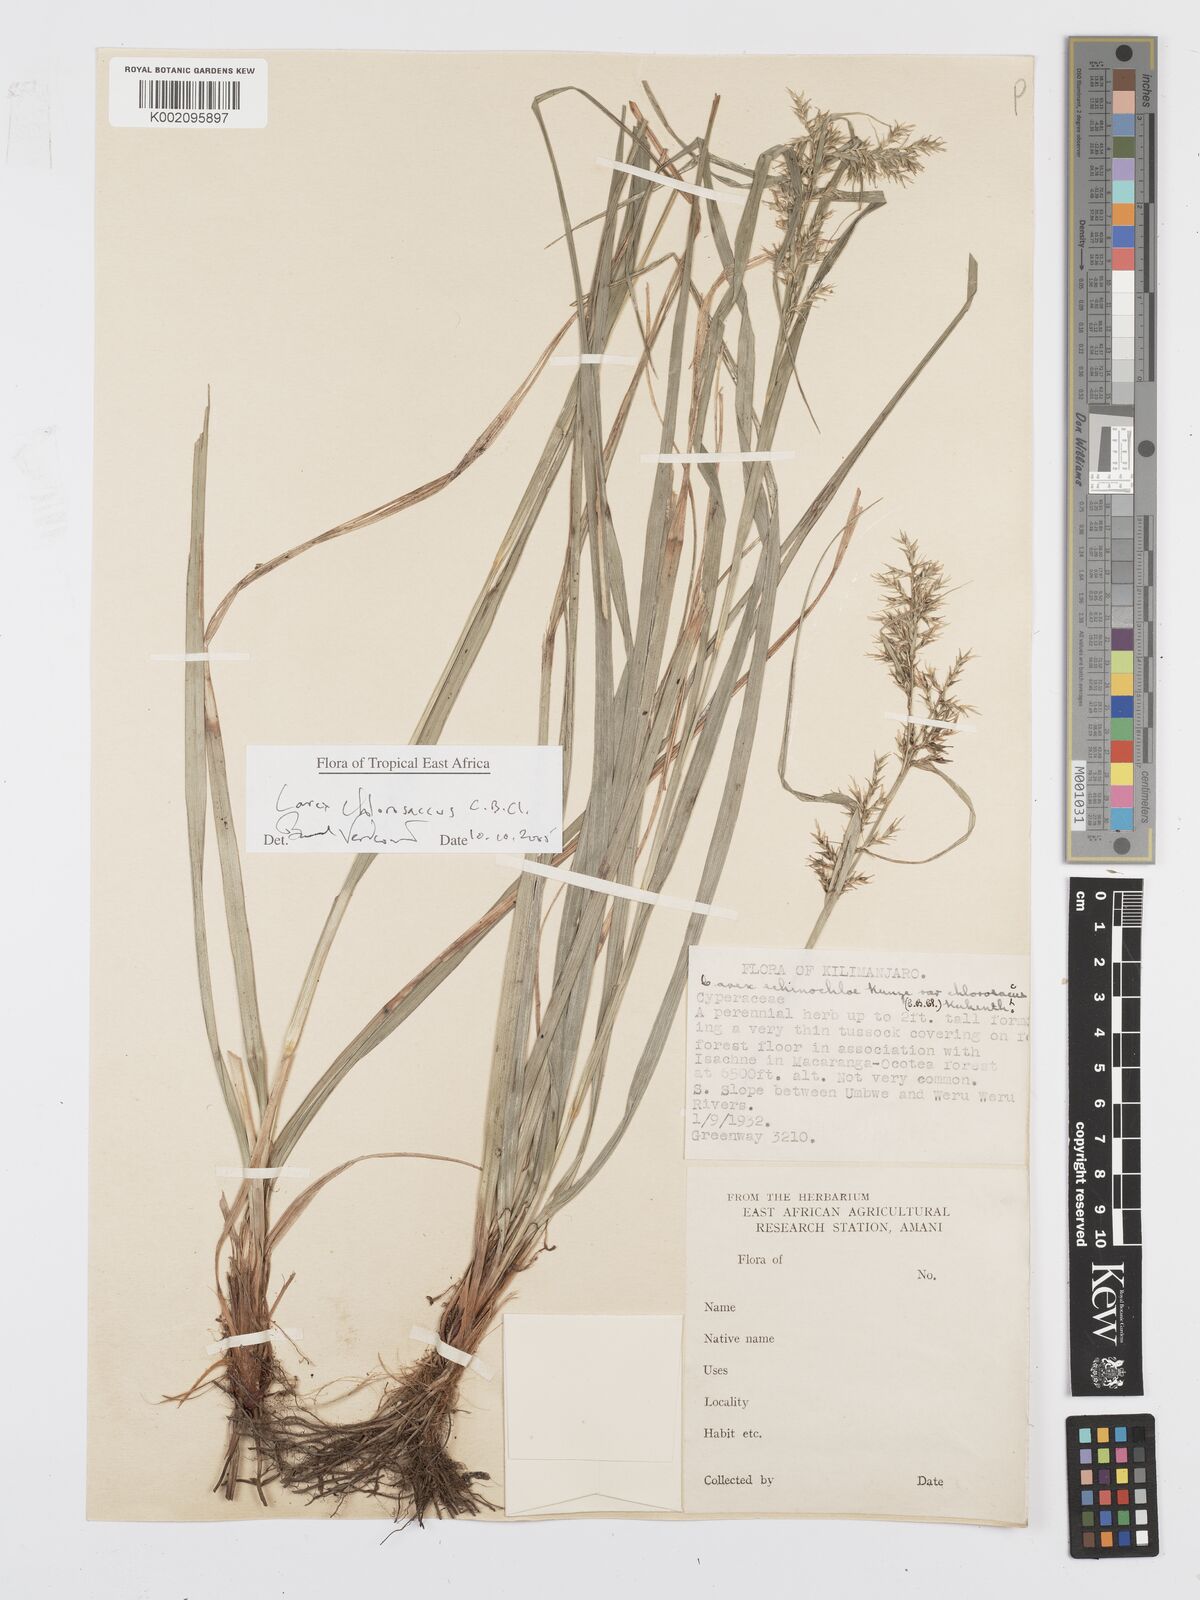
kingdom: Plantae
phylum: Tracheophyta
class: Liliopsida
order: Poales
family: Cyperaceae
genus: Carex
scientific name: Carex chlorosaccus
